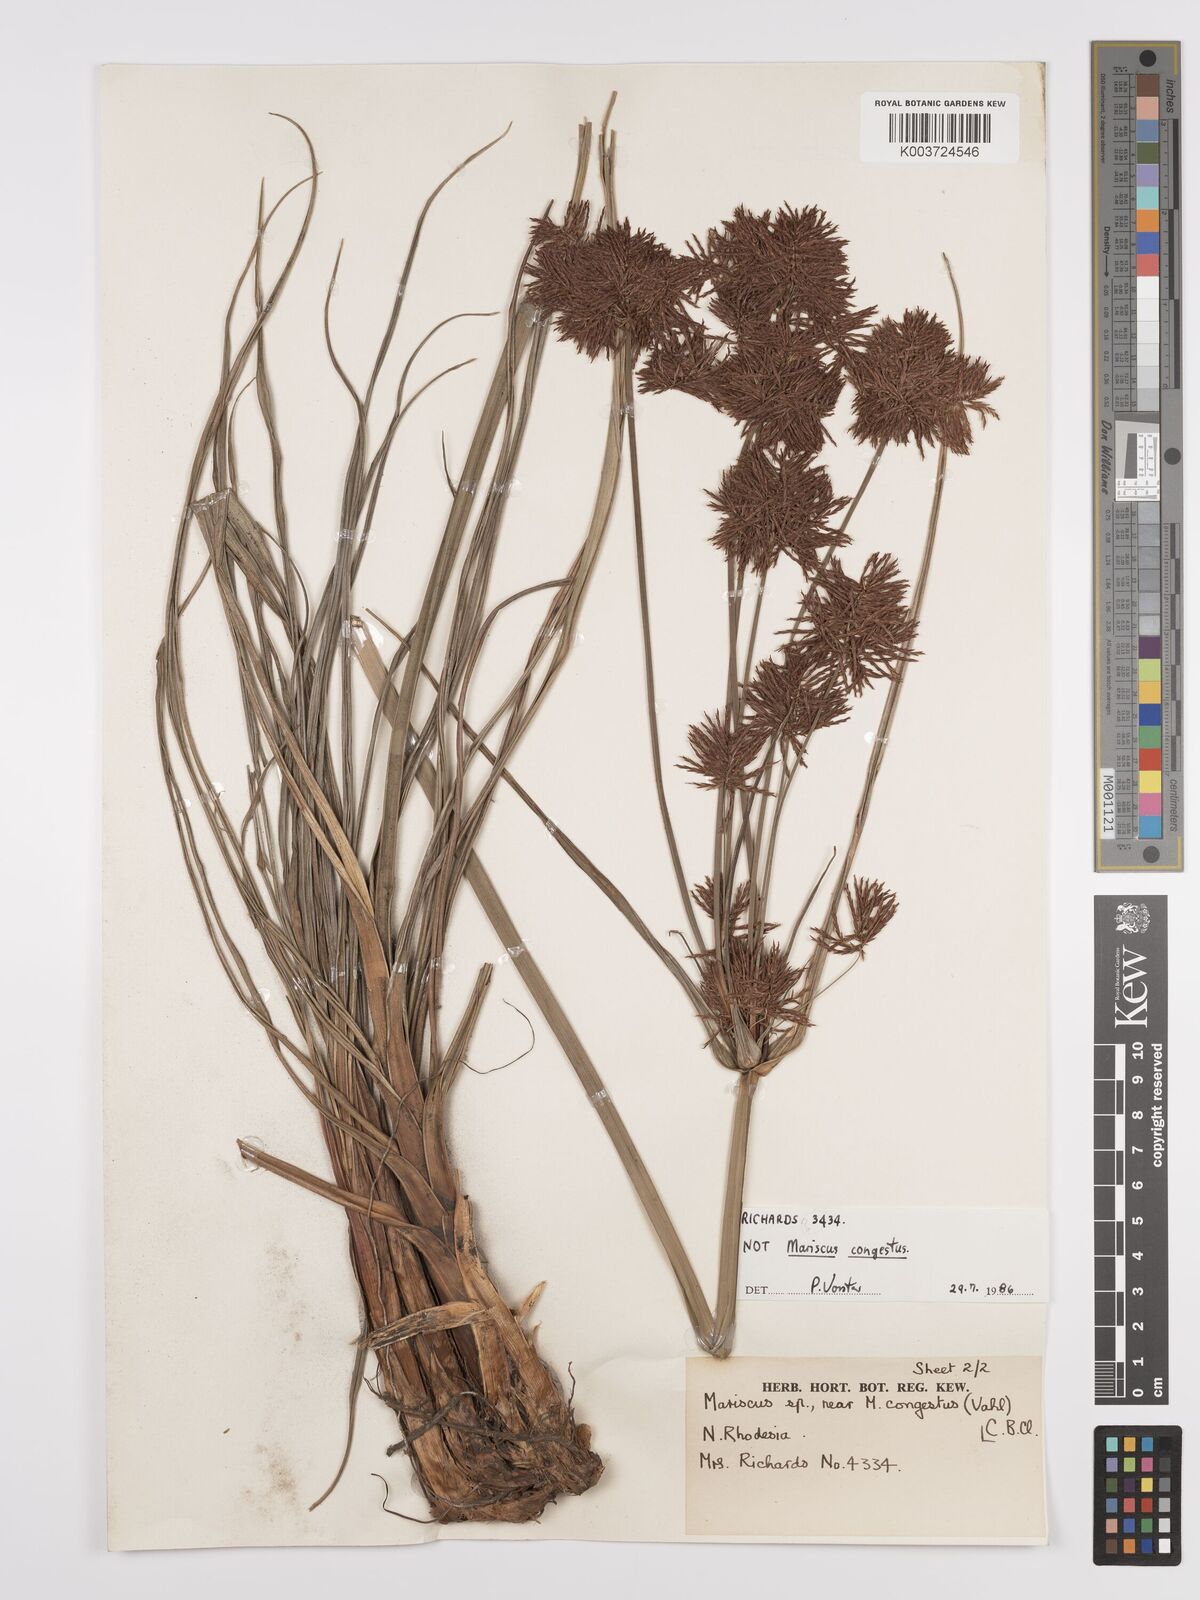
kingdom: Plantae
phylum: Tracheophyta
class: Liliopsida
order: Poales
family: Cyperaceae
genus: Cyperus
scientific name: Cyperus congestus
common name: Dense flat sedge
